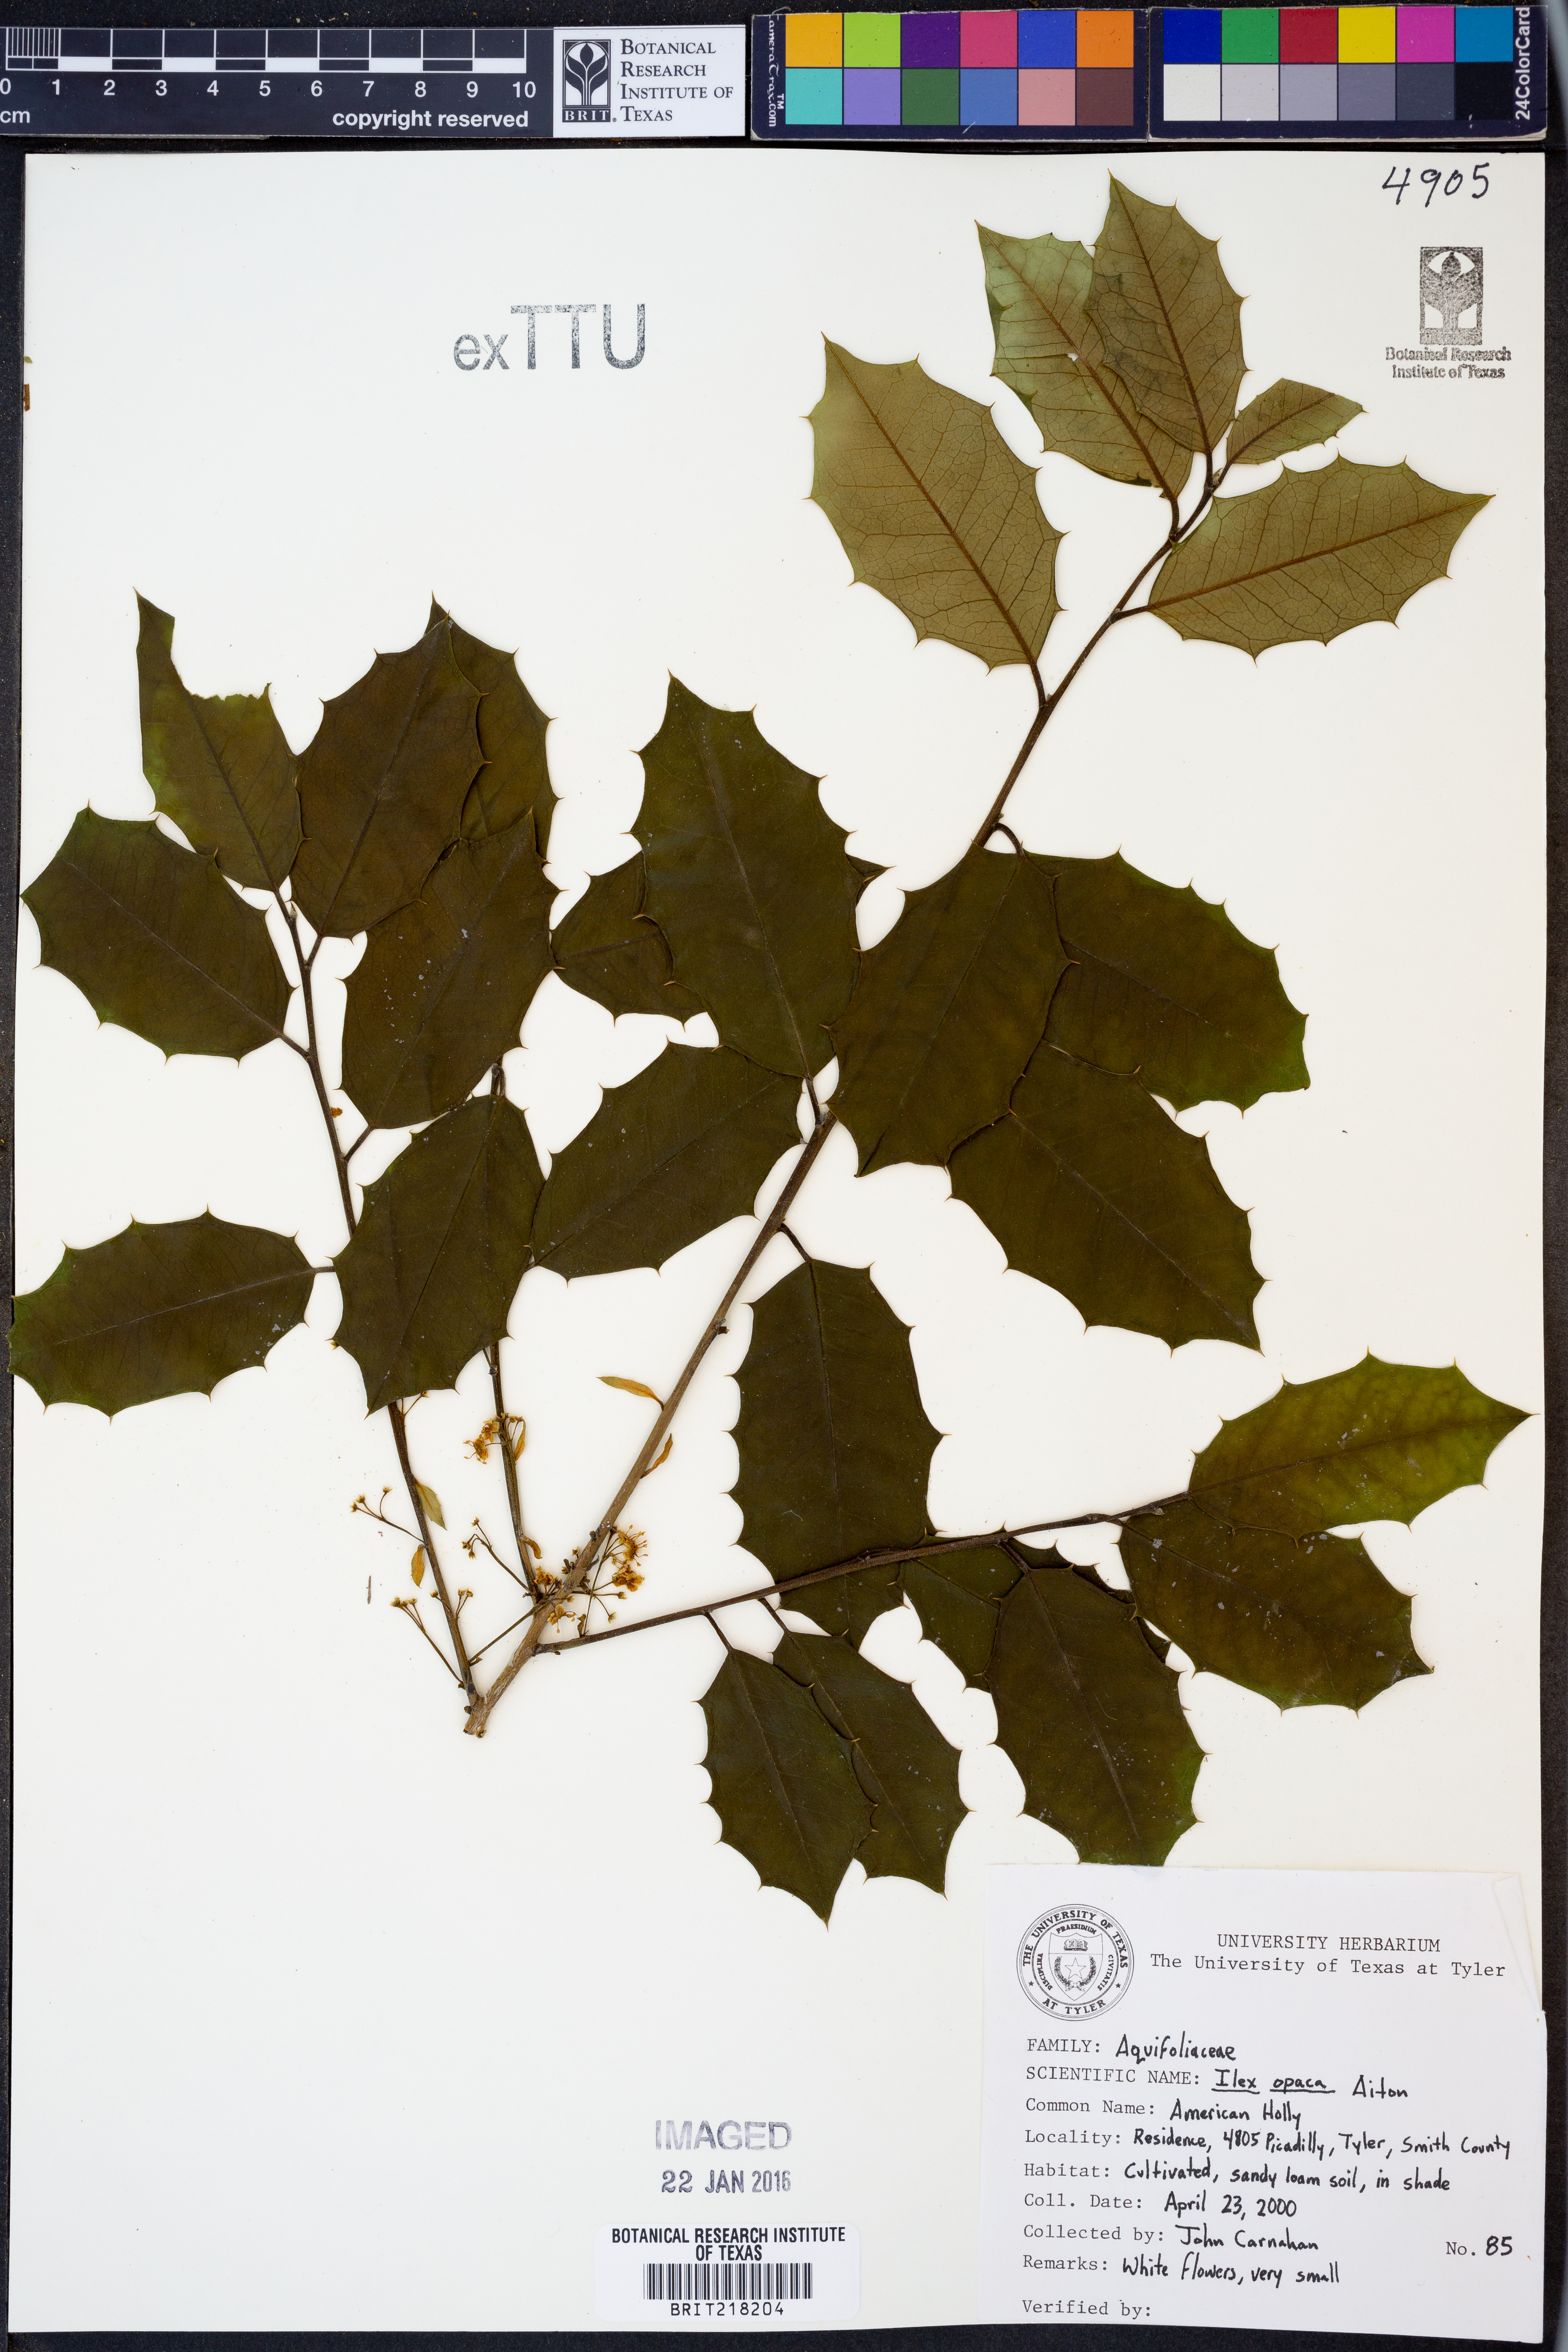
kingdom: Plantae
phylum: Tracheophyta
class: Magnoliopsida
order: Aquifoliales
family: Aquifoliaceae
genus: Ilex
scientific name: Ilex opaca
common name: American holly
